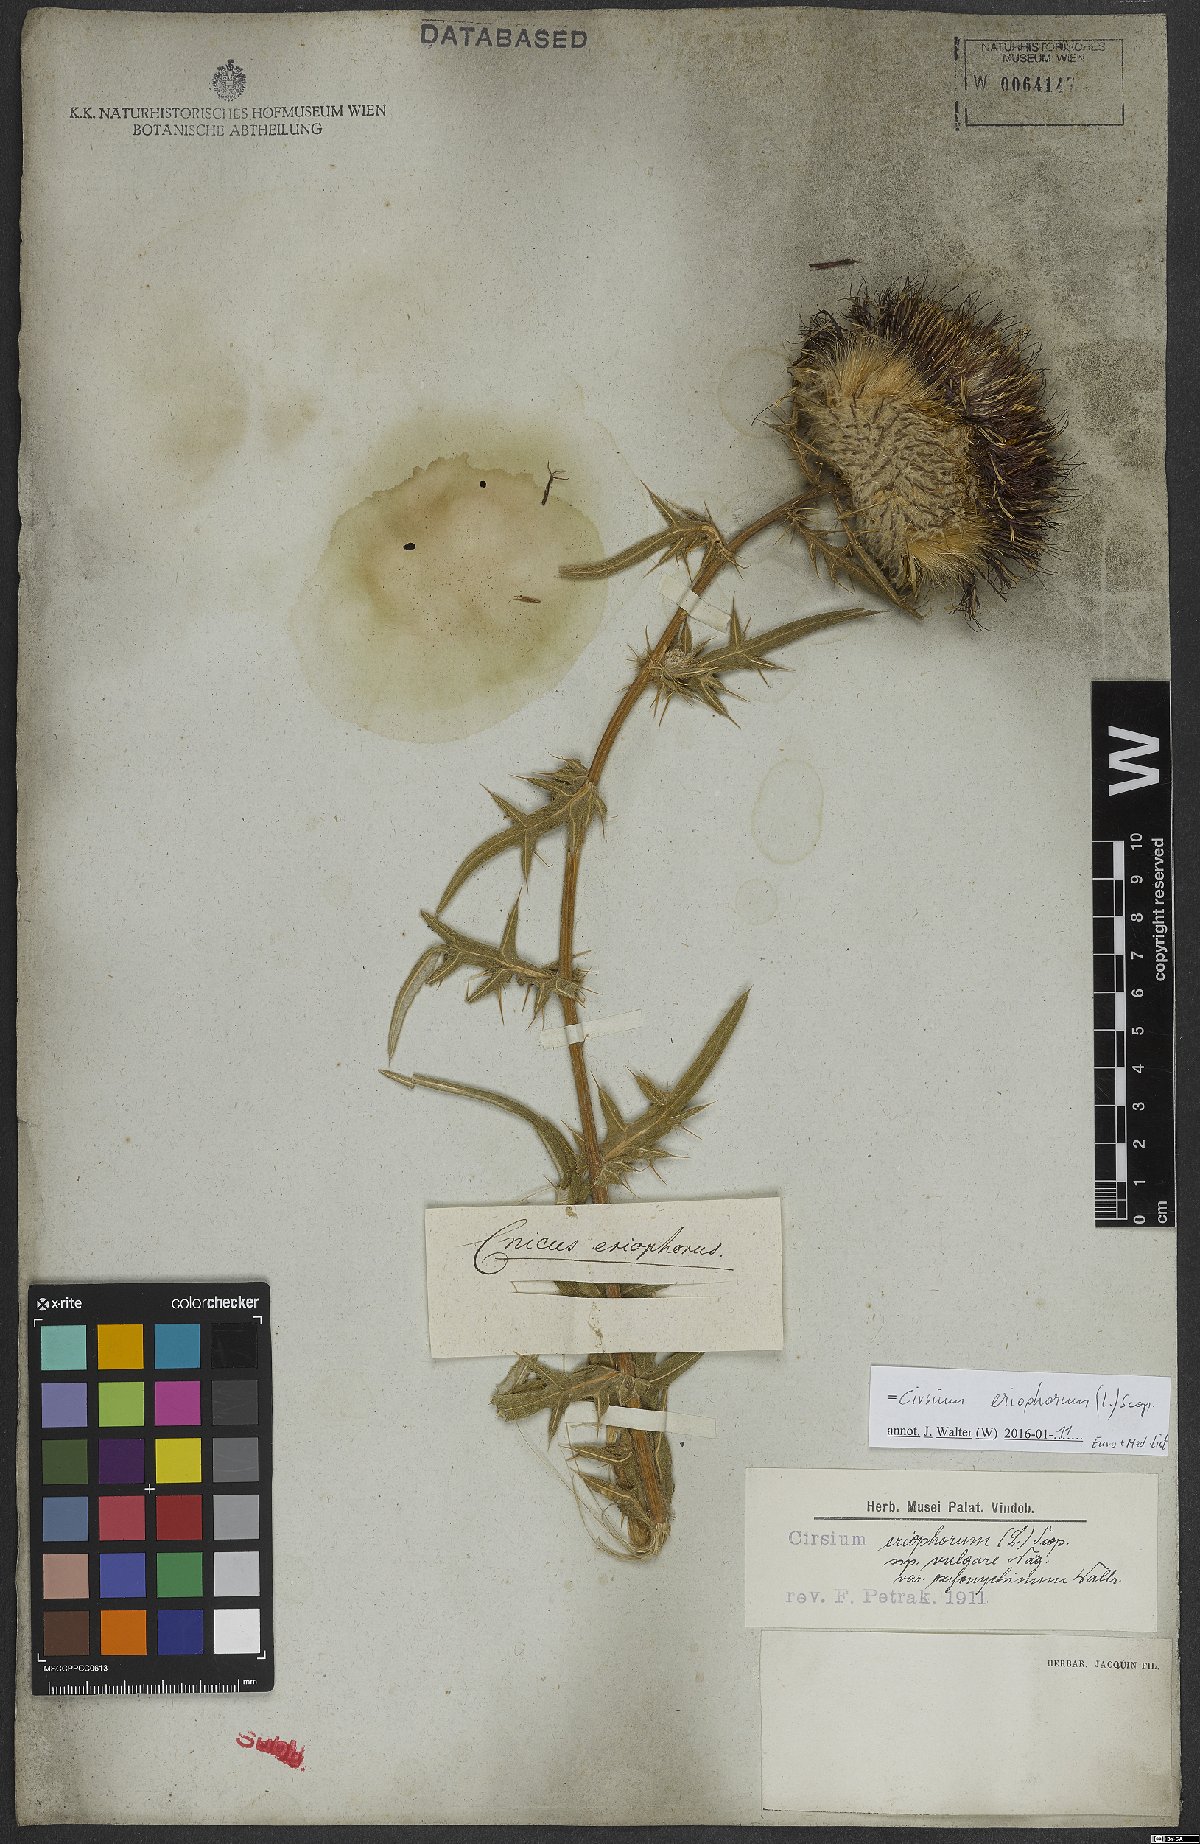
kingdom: Plantae
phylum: Tracheophyta
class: Magnoliopsida
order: Asterales
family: Asteraceae
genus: Lophiolepis
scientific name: Lophiolepis eriophora
